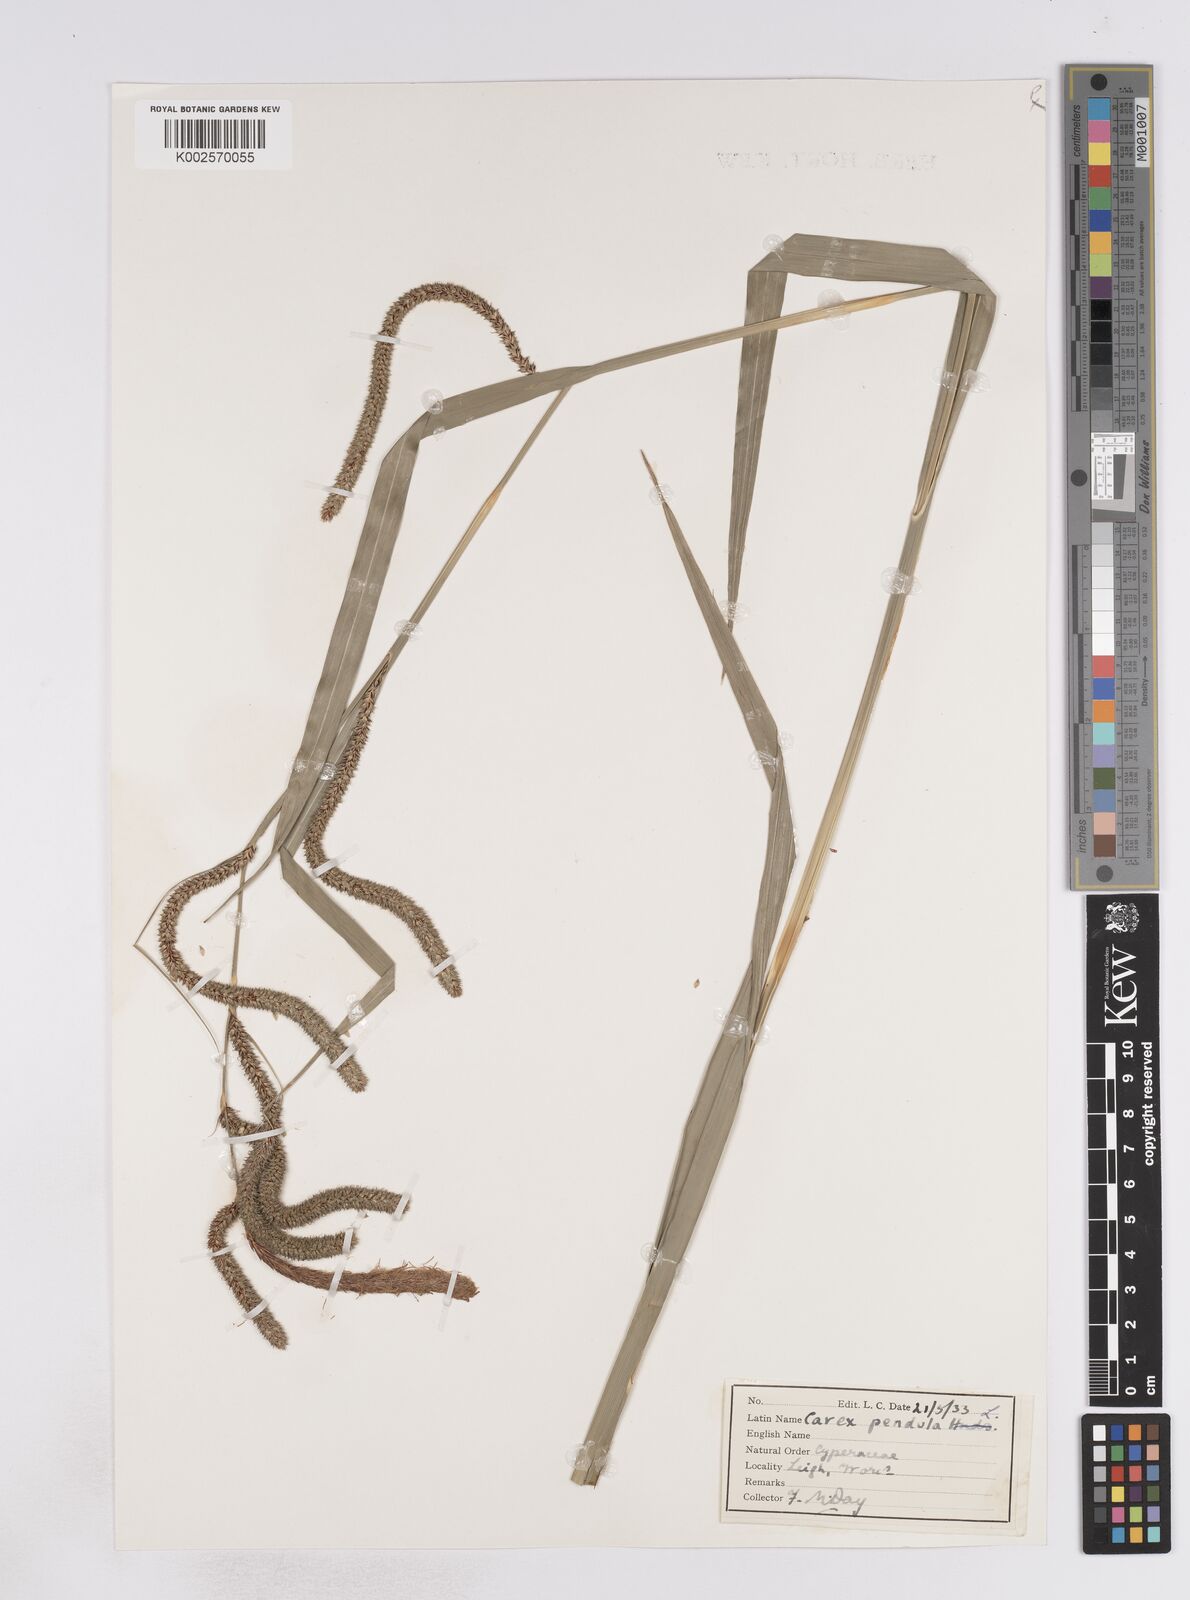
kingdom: Plantae
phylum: Tracheophyta
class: Liliopsida
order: Poales
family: Cyperaceae
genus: Carex
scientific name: Carex pendula
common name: Pendulous sedge
